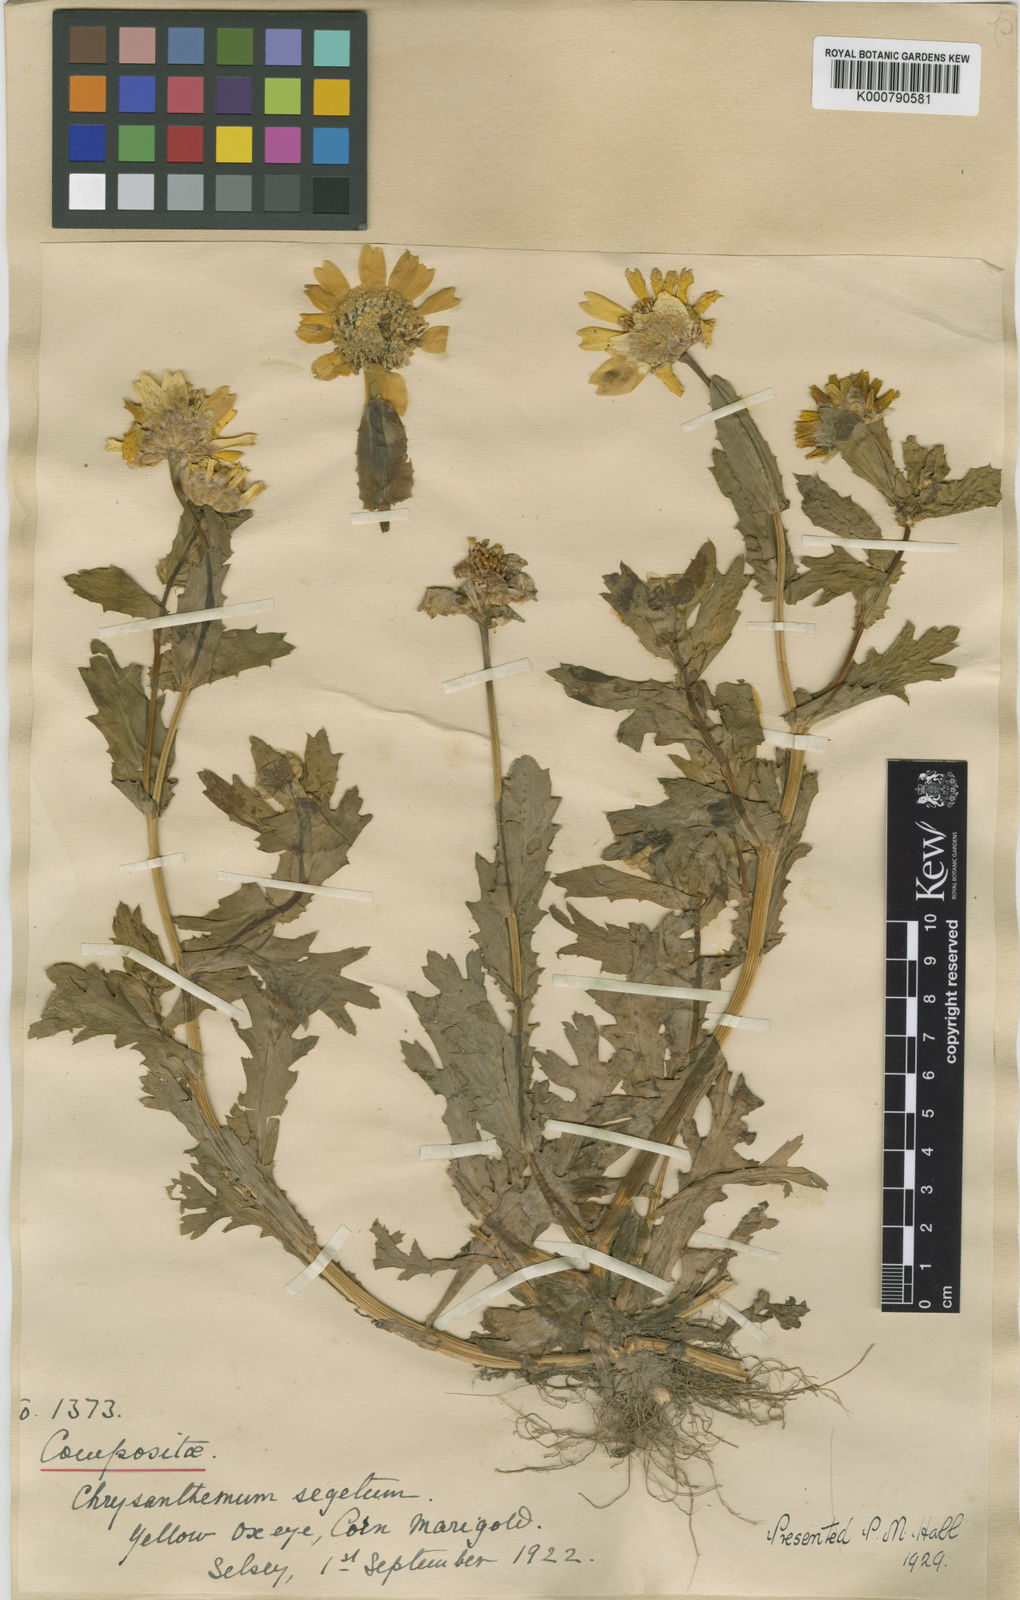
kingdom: Plantae
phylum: Tracheophyta
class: Magnoliopsida
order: Asterales
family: Asteraceae
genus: Glebionis
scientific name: Glebionis
